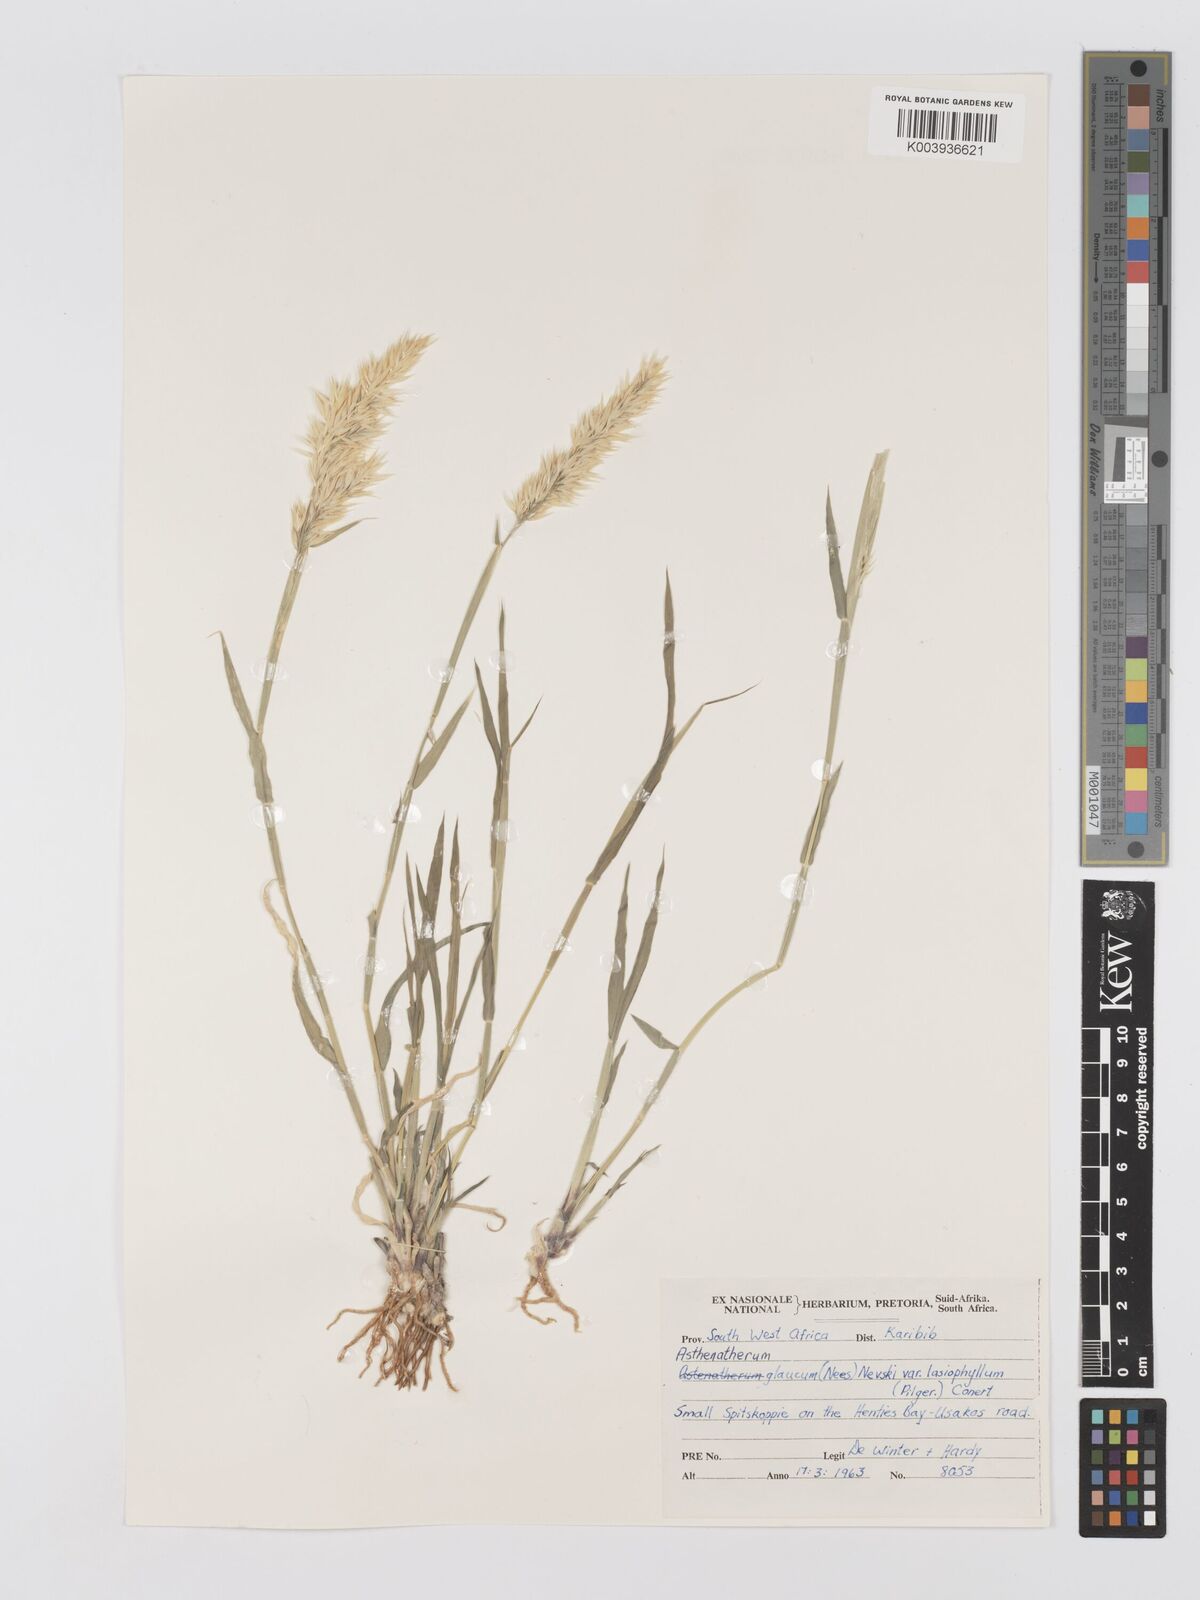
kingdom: Plantae
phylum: Tracheophyta
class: Liliopsida
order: Poales
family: Poaceae
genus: Centropodia
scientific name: Centropodia glauca
